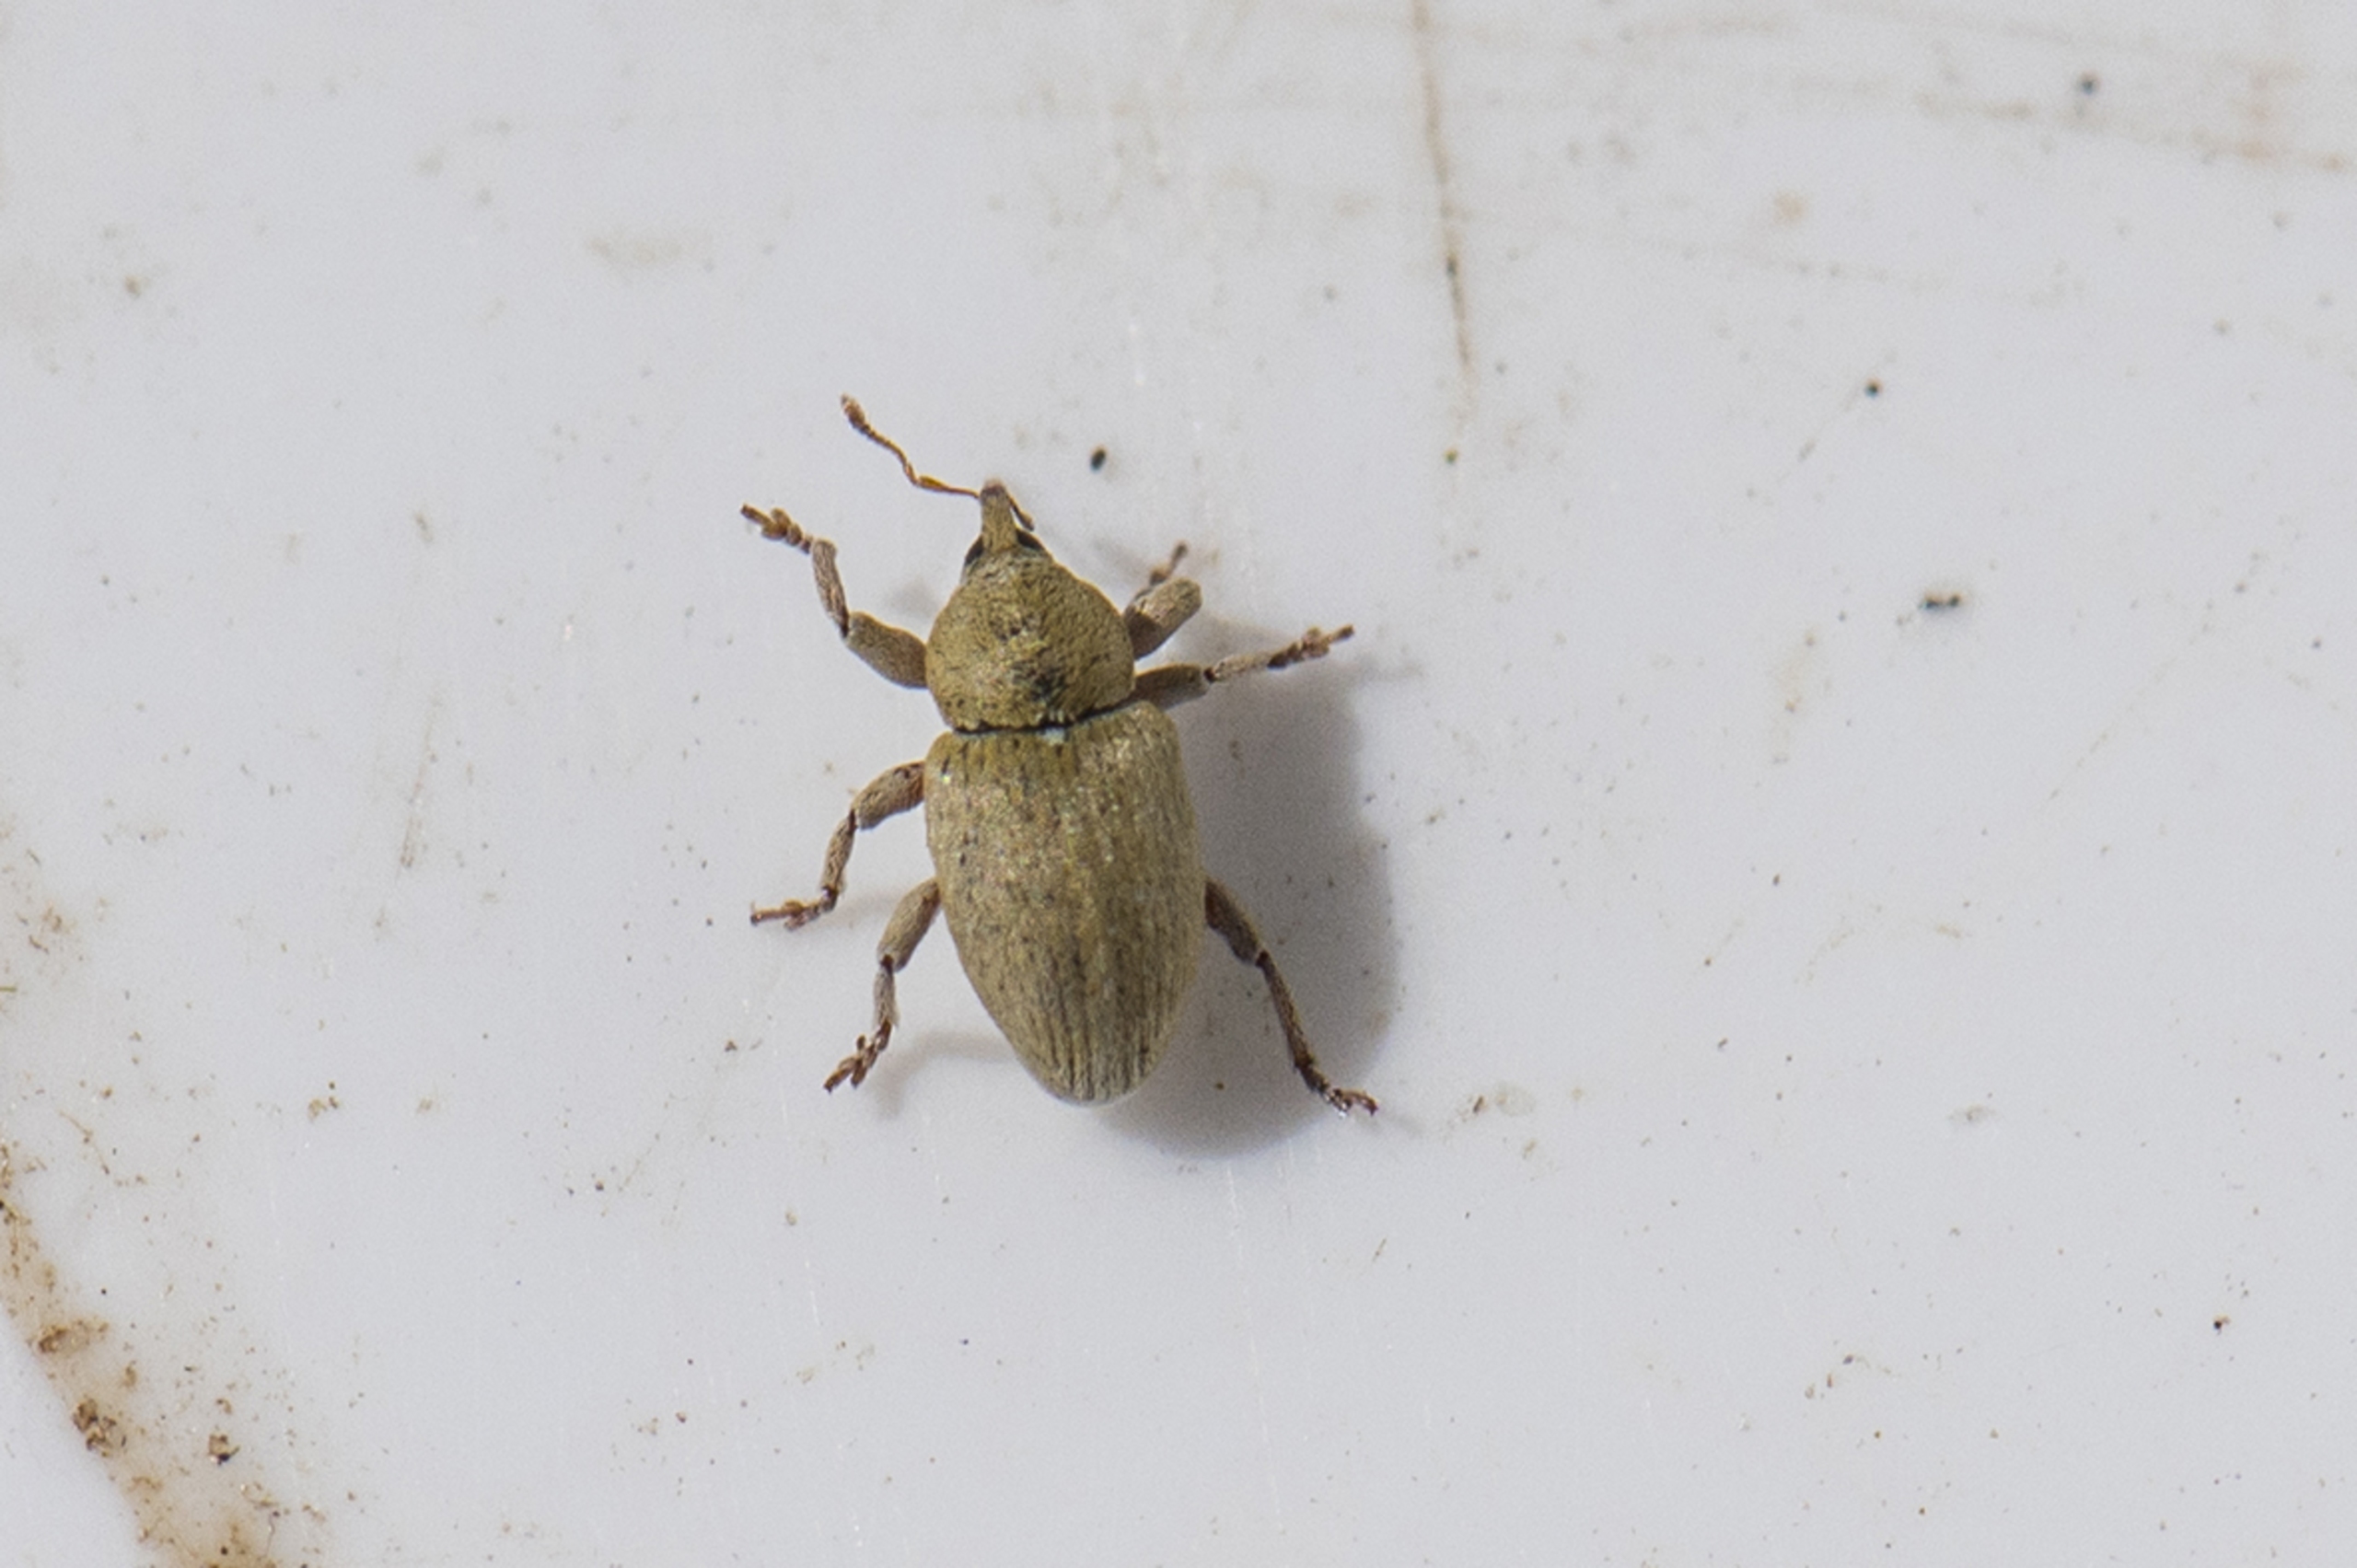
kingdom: Animalia
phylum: Arthropoda
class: Insecta
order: Coleoptera
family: Curculionidae
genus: Tychius
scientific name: Tychius breviusculus
